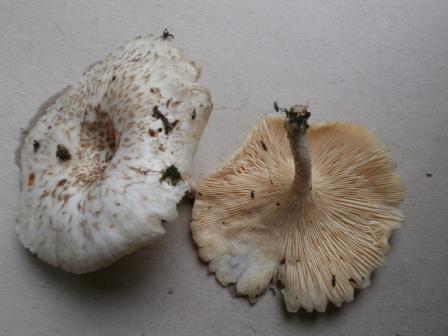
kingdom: Fungi
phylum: Basidiomycota
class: Agaricomycetes
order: Polyporales
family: Polyporaceae
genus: Lentinus
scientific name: Lentinus tigrinus
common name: tigerhat
